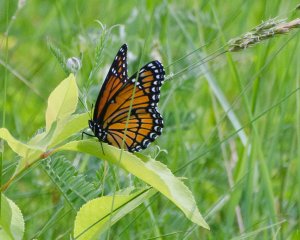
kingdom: Animalia
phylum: Arthropoda
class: Insecta
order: Lepidoptera
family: Nymphalidae
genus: Limenitis
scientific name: Limenitis archippus
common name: Viceroy
